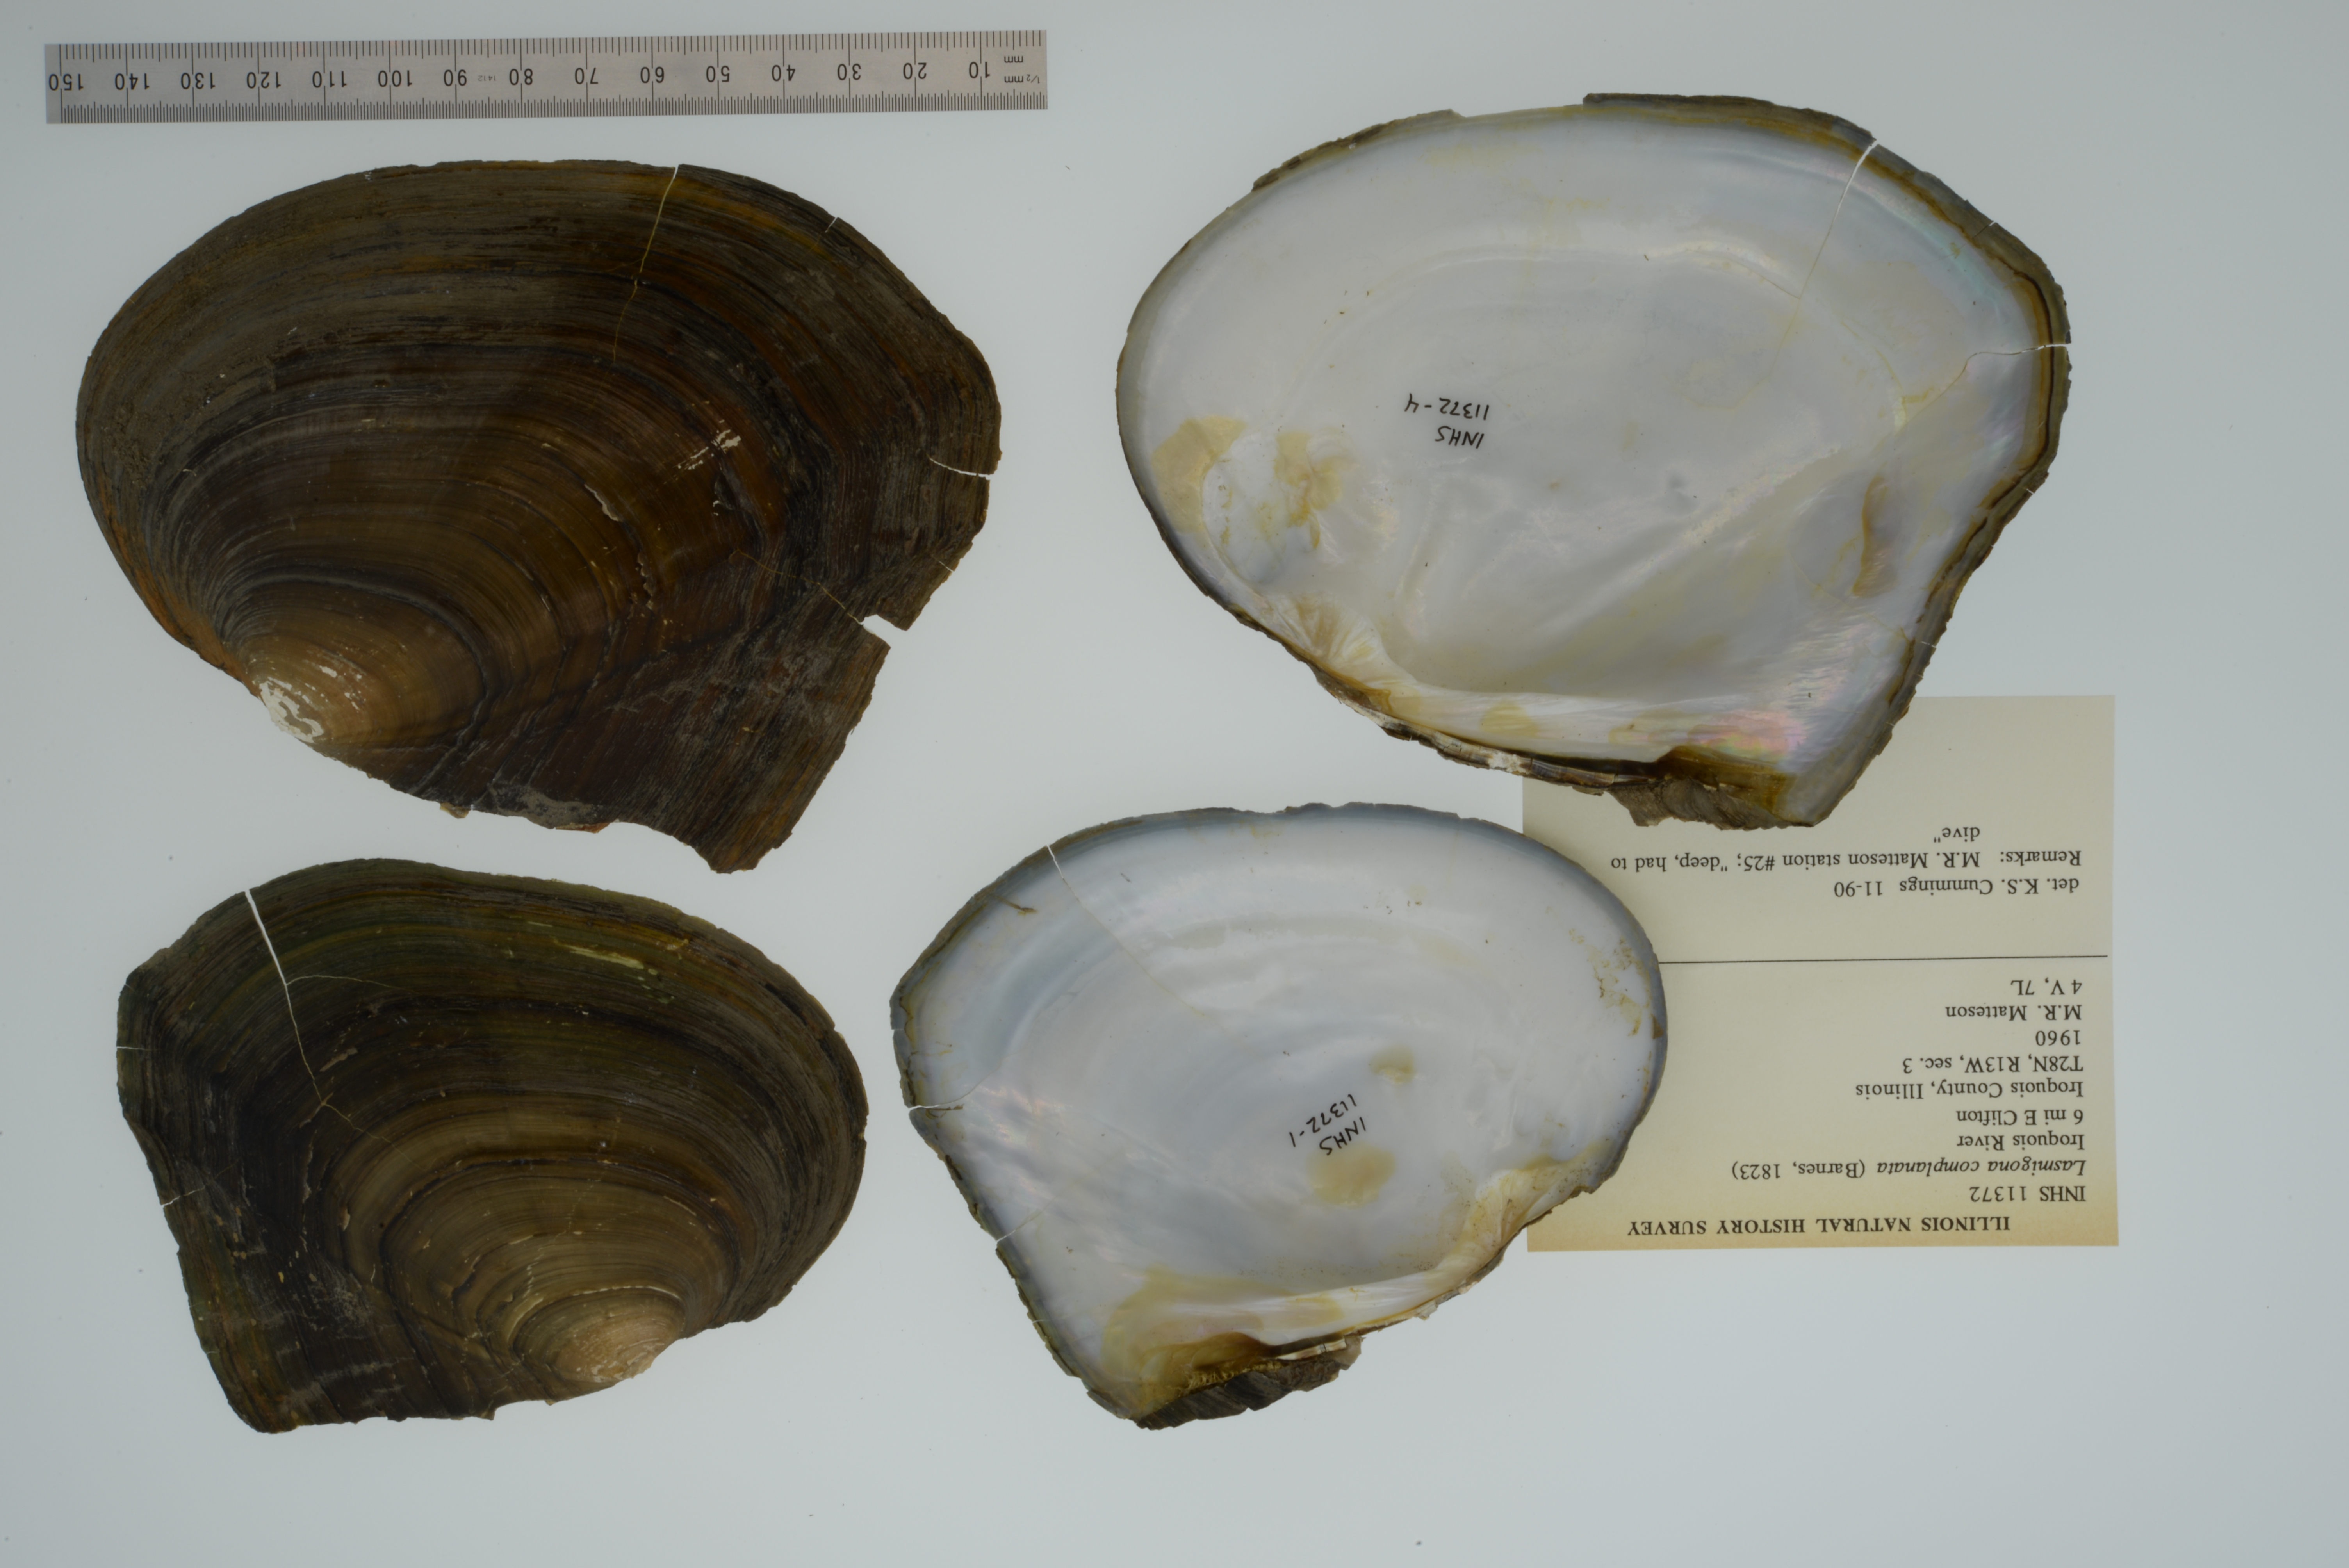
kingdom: Animalia
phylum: Mollusca
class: Bivalvia
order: Unionida
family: Unionidae
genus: Lasmigona
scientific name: Lasmigona complanata
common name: White heelsplitter
